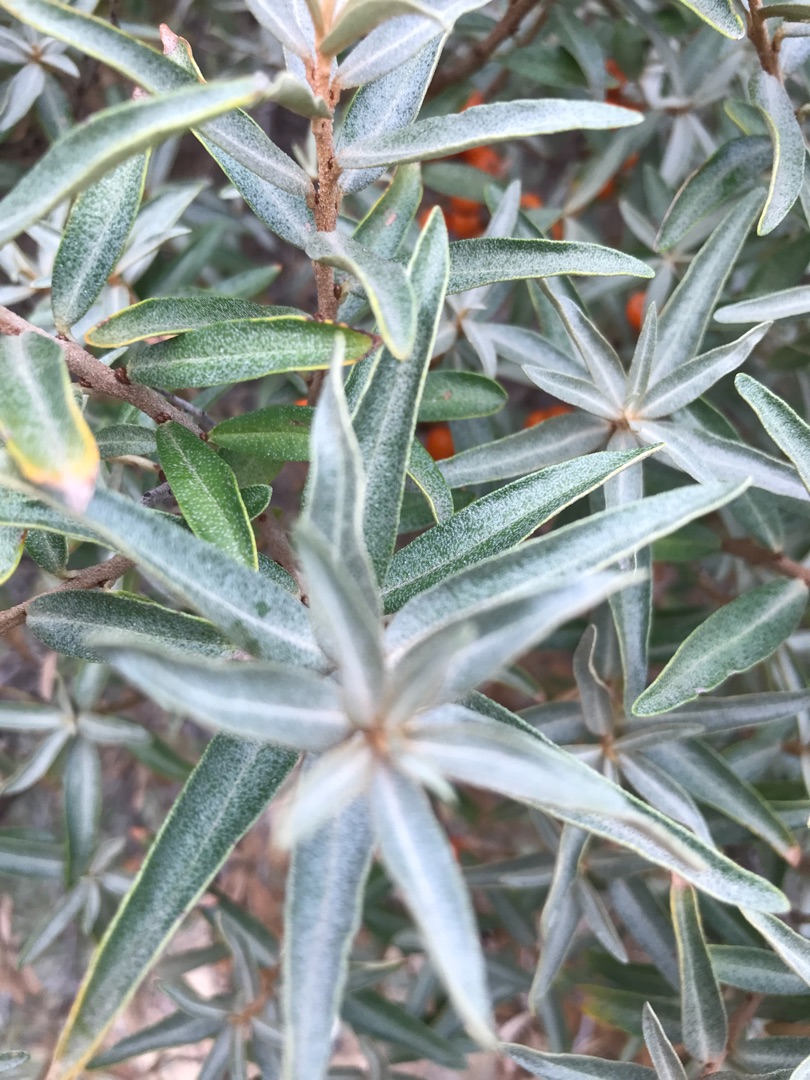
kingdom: Plantae
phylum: Tracheophyta
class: Magnoliopsida
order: Rosales
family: Elaeagnaceae
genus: Hippophae
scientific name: Hippophae rhamnoides
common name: Havtorn
